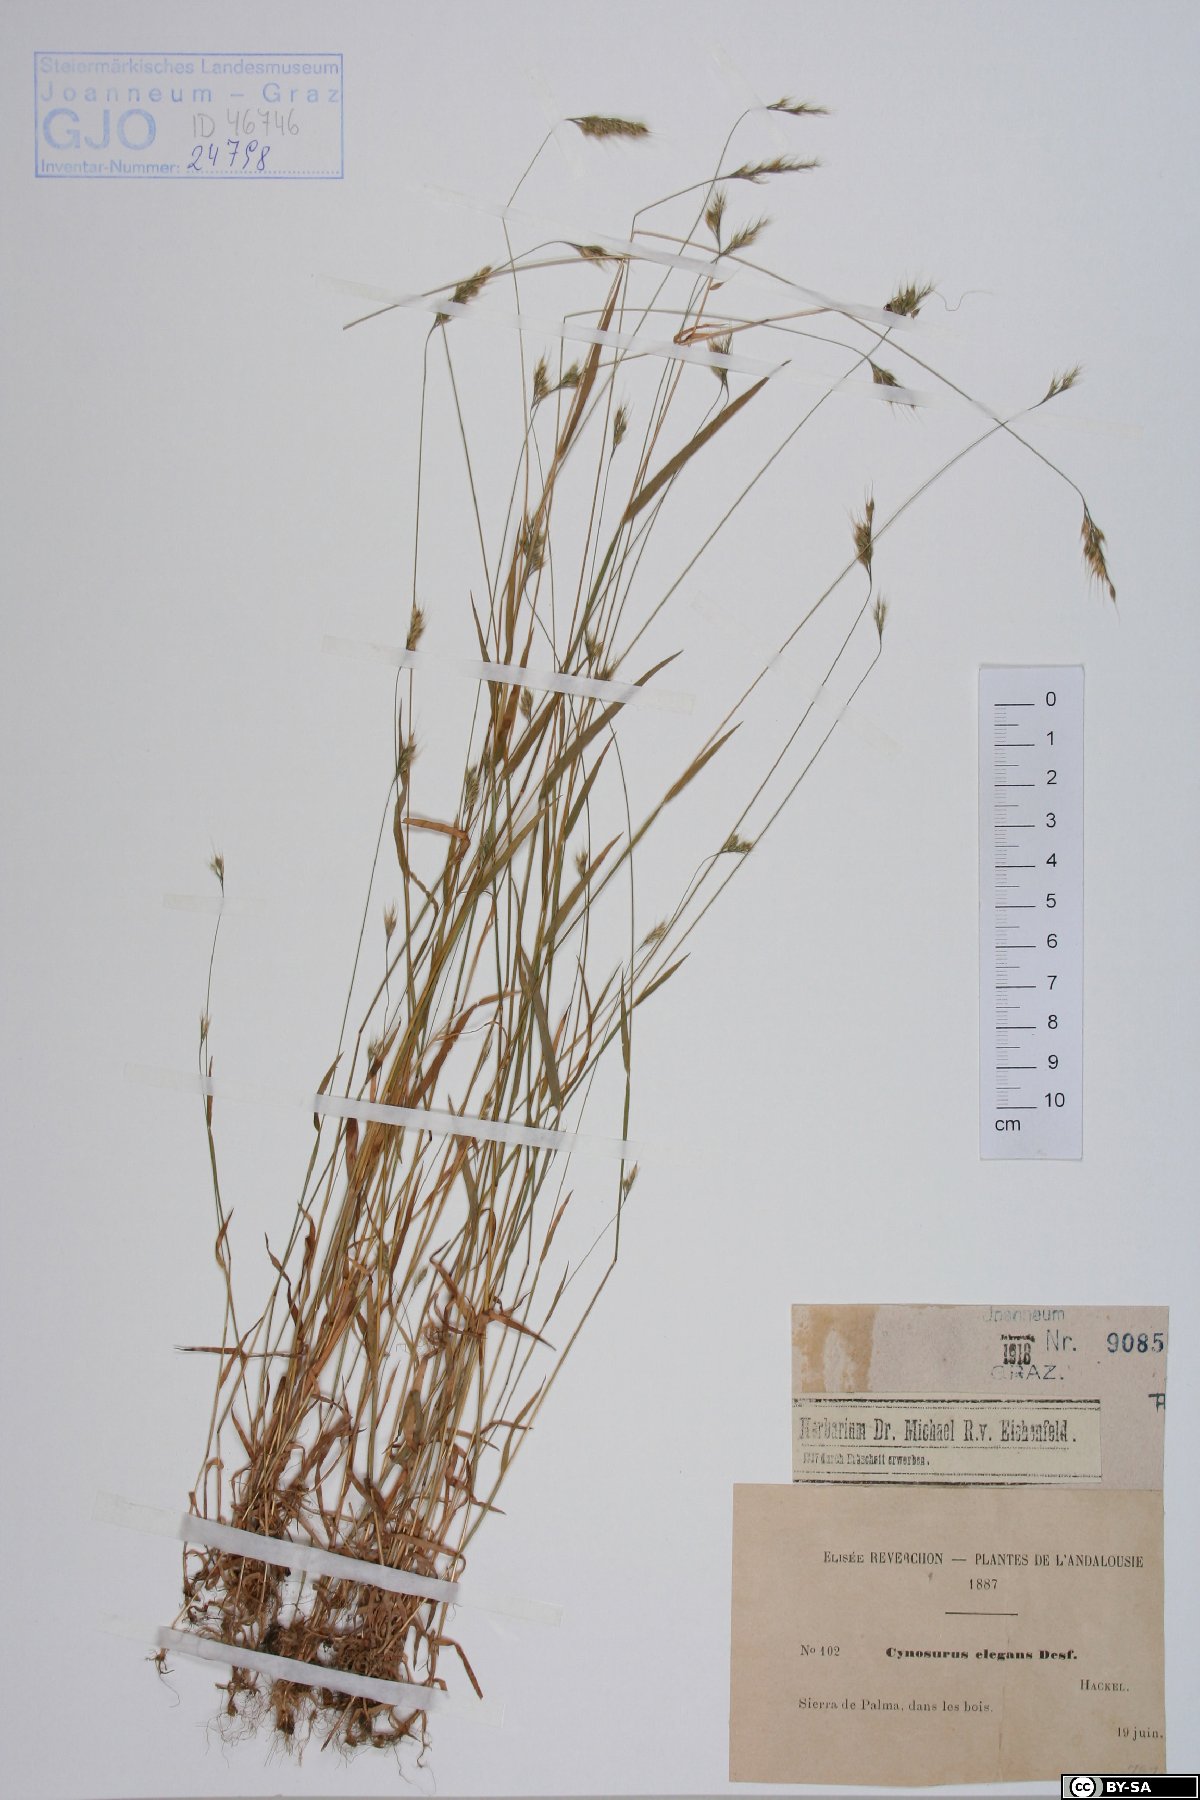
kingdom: Plantae
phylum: Tracheophyta
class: Liliopsida
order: Poales
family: Poaceae
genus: Cynosurus
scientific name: Cynosurus elegans
